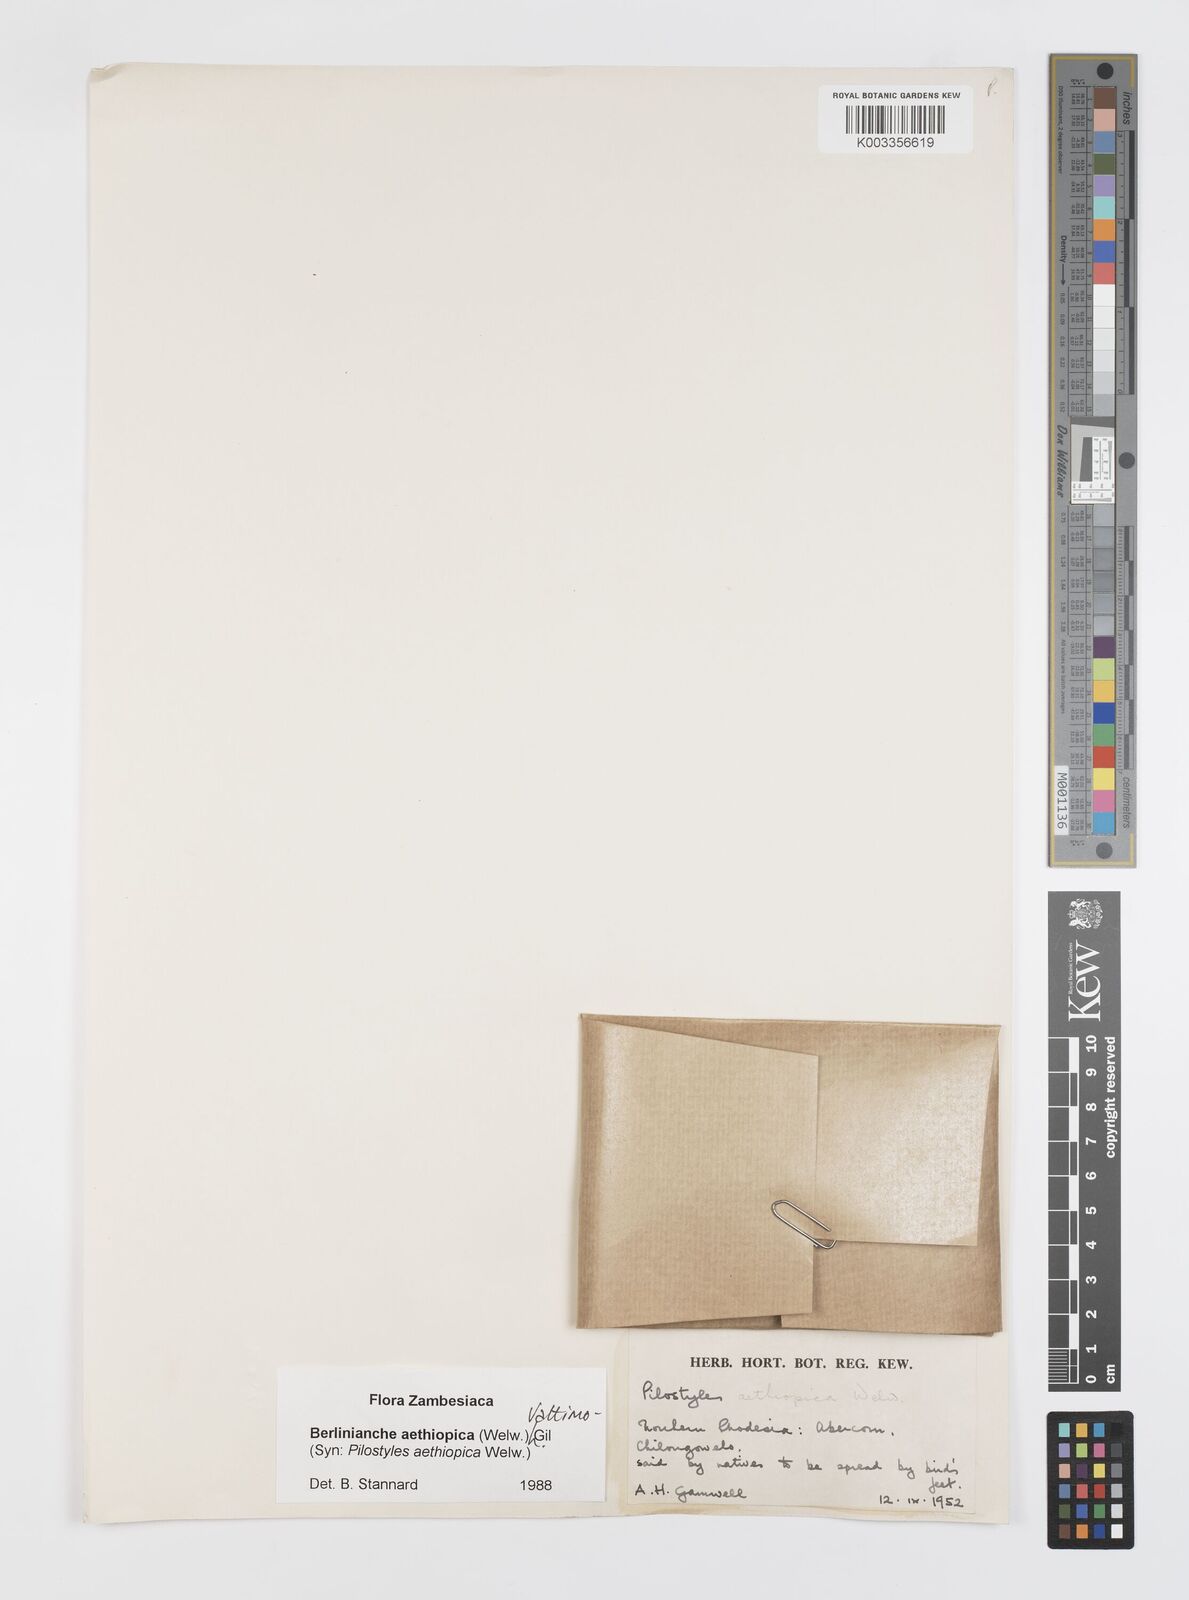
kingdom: Plantae
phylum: Tracheophyta
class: Magnoliopsida
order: Cucurbitales
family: Apodanthaceae
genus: Pilostyles
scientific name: Pilostyles aethiopica
